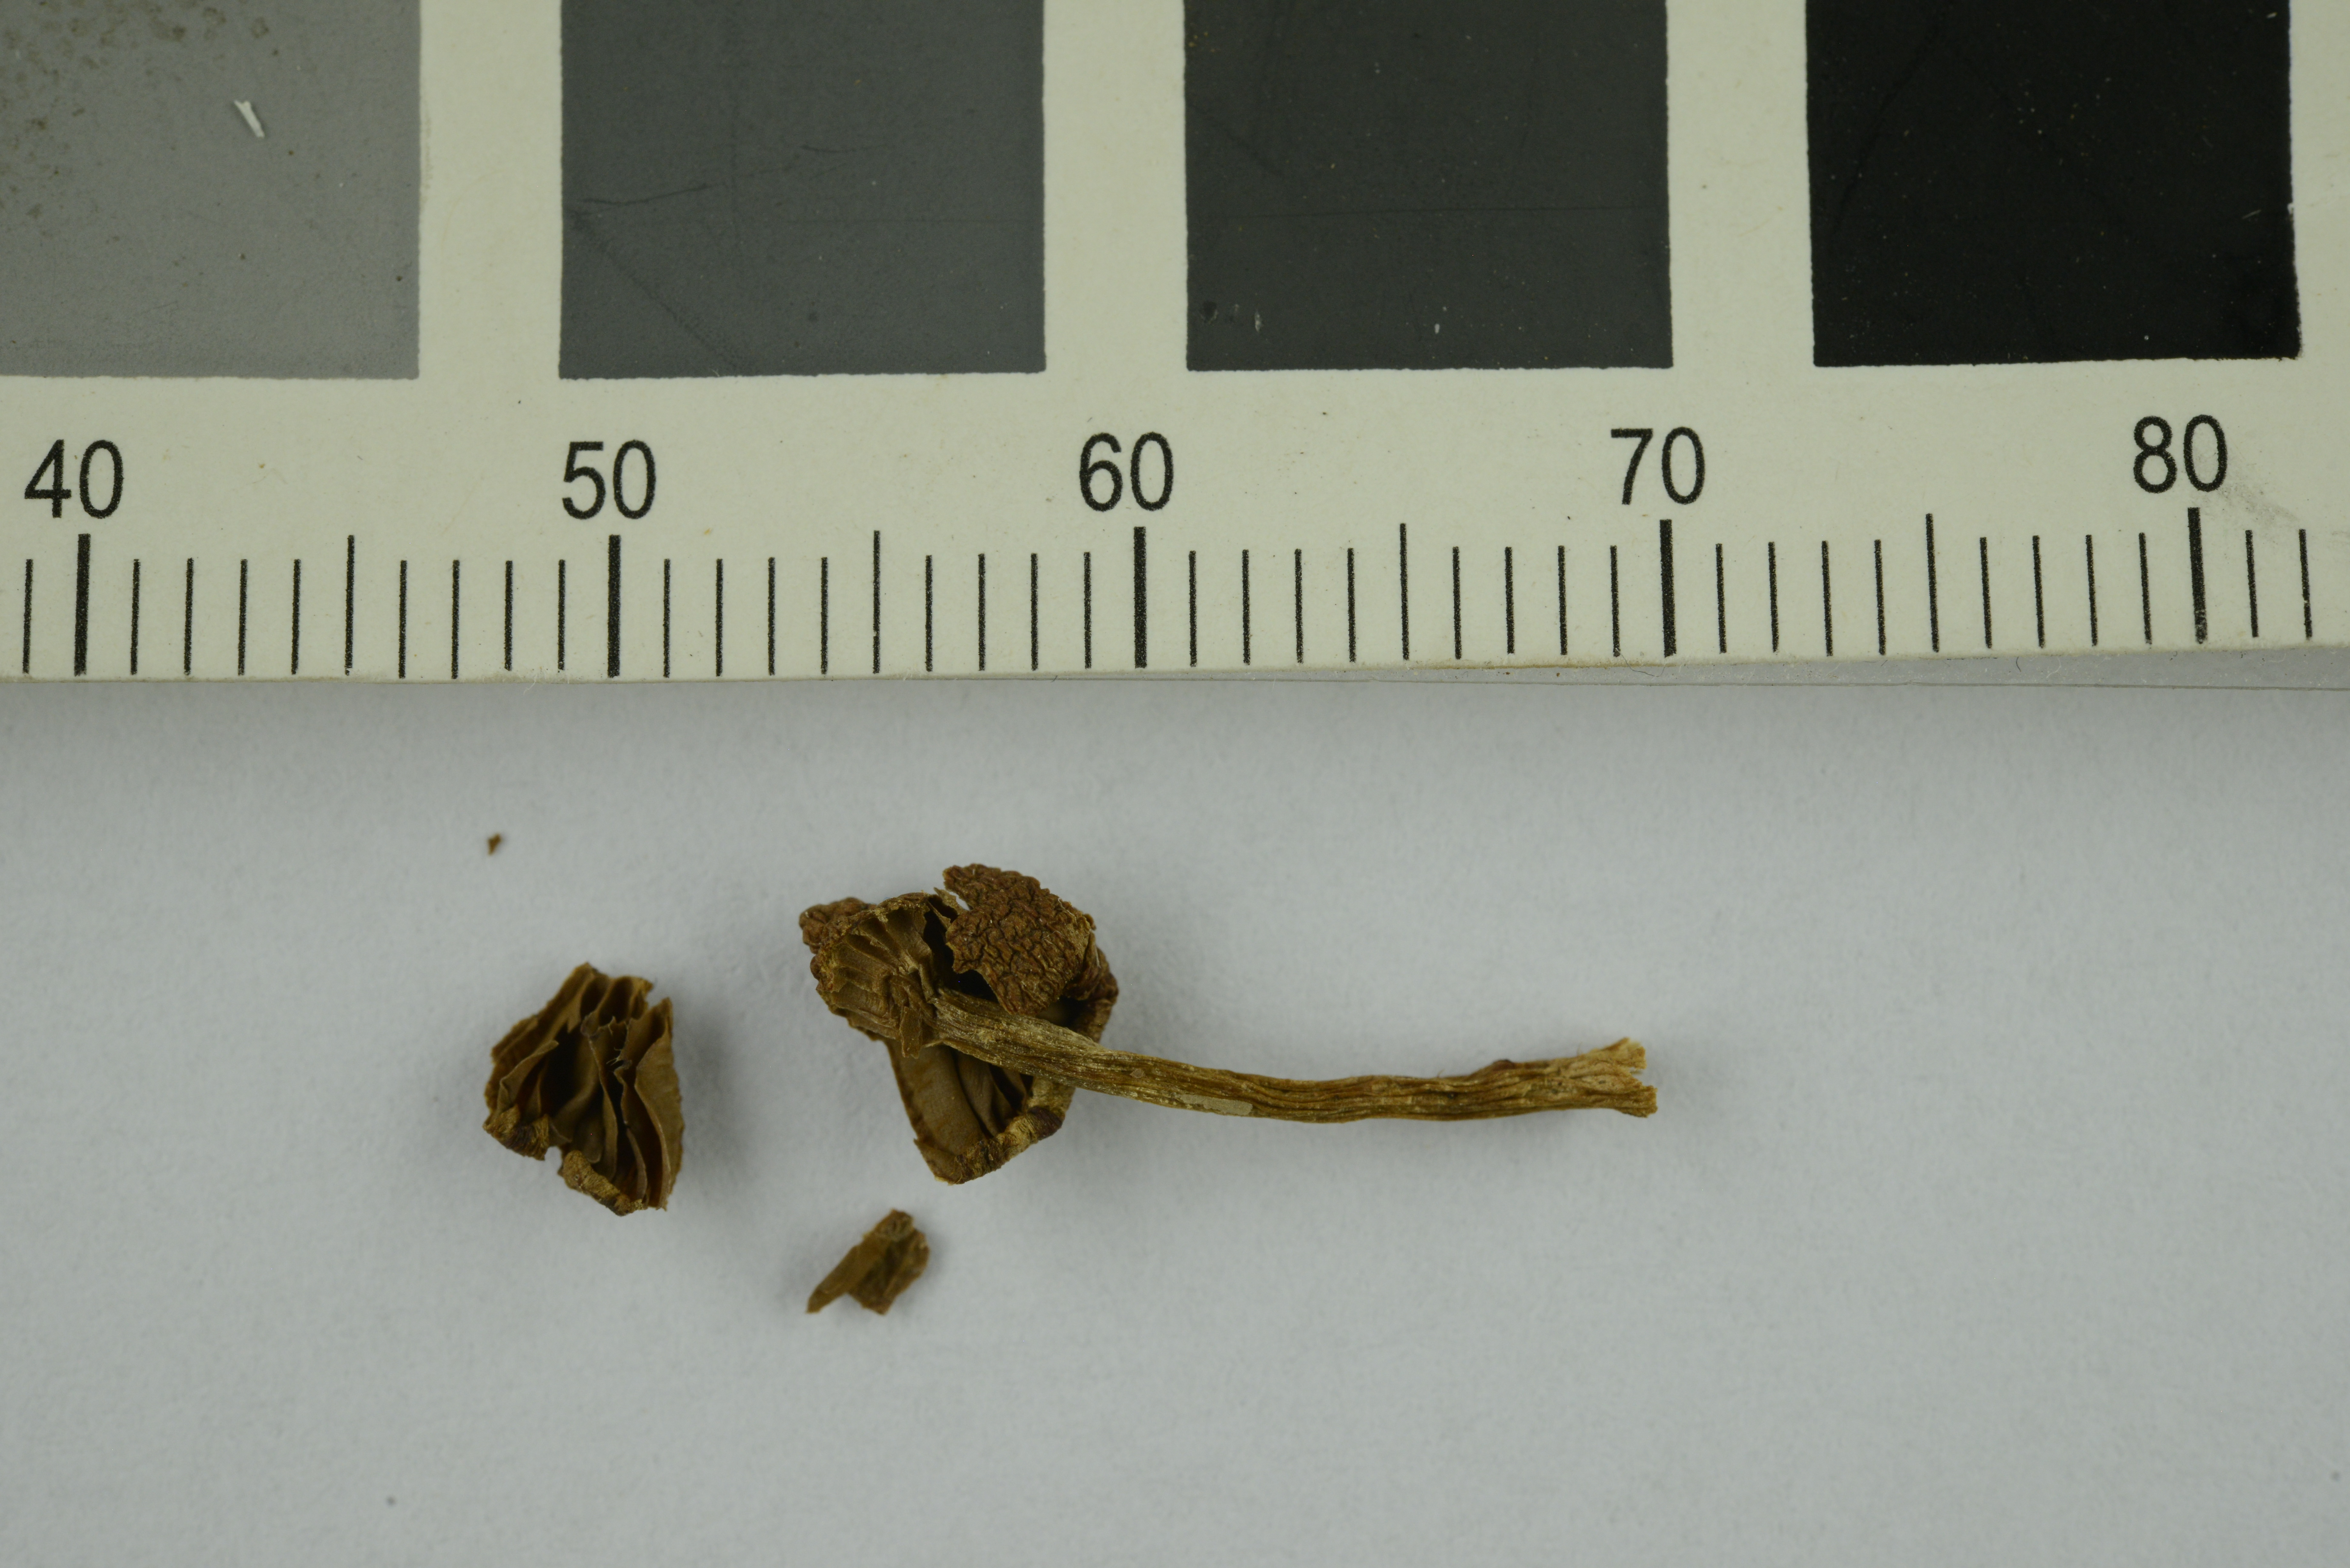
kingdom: Fungi
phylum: Basidiomycota
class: Agaricomycetes
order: Agaricales
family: Cortinariaceae
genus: Cortinarius
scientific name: Cortinarius gentilis
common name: Conifer webcap
